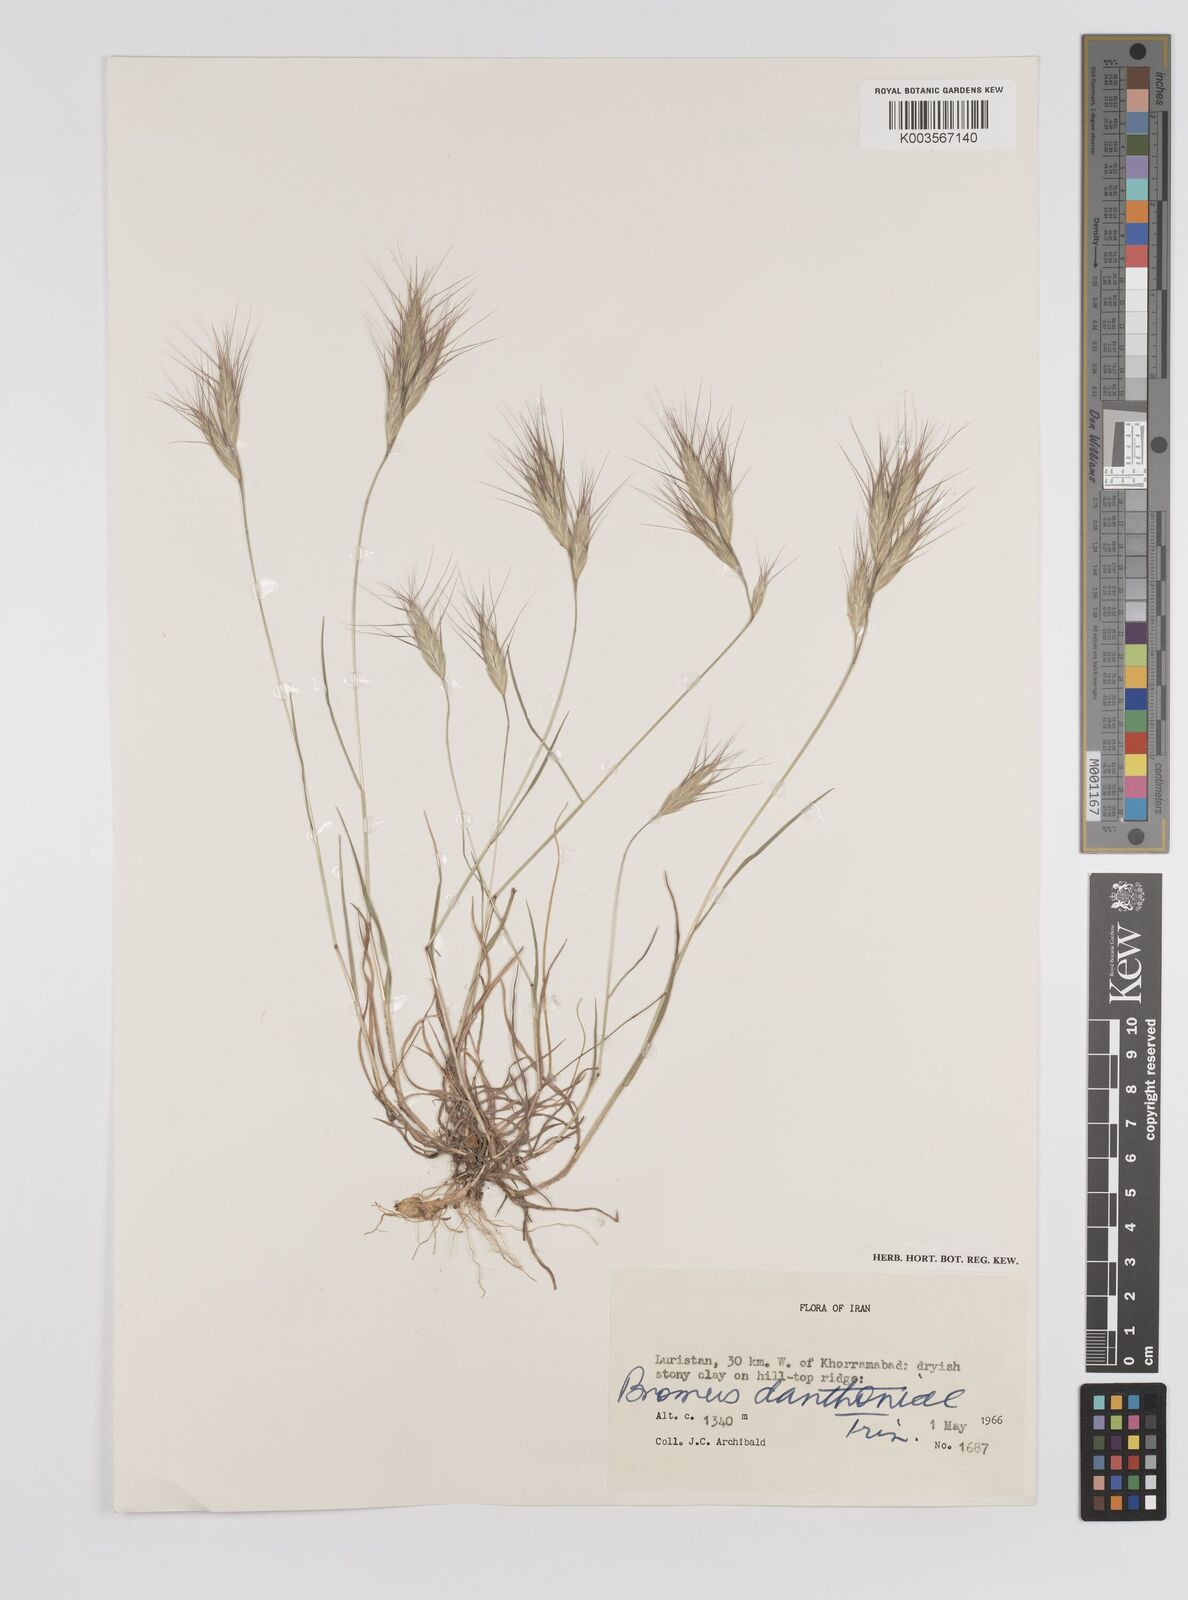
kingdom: Plantae
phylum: Tracheophyta
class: Liliopsida
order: Poales
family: Poaceae
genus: Bromus
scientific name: Bromus danthoniae
